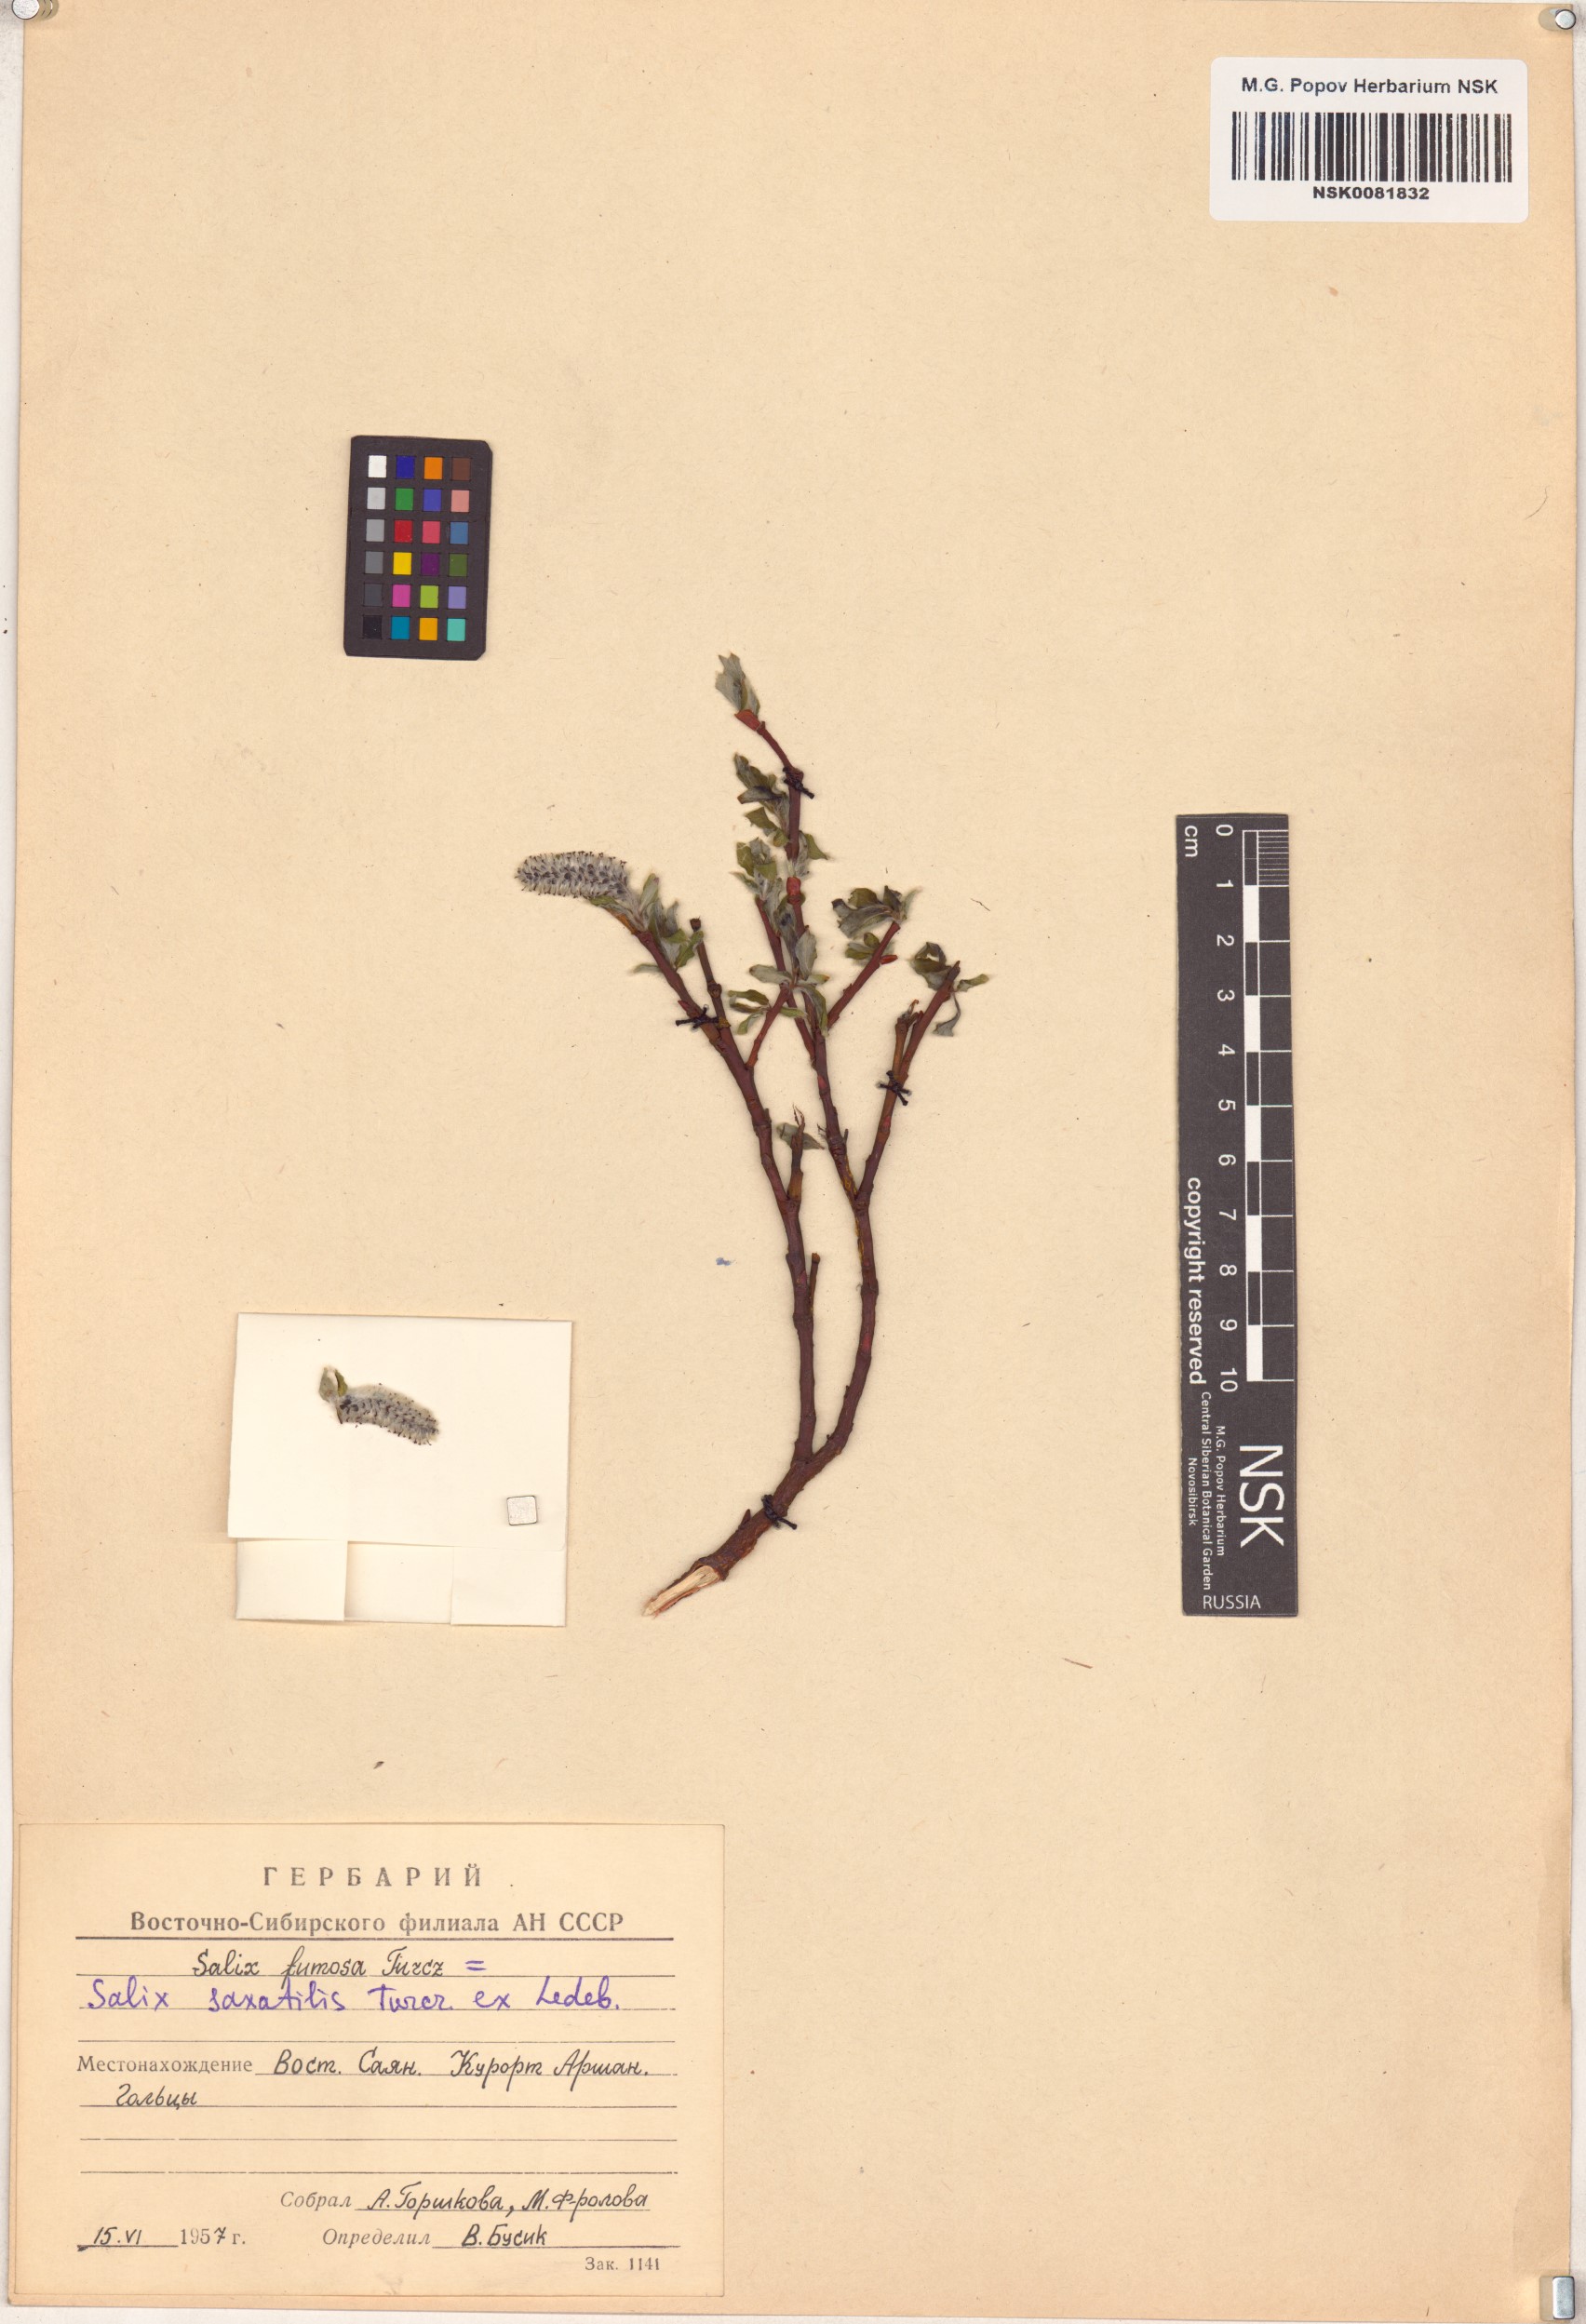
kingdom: Plantae
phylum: Tracheophyta
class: Magnoliopsida
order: Malpighiales
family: Salicaceae
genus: Salix
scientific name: Salix saxatilis
